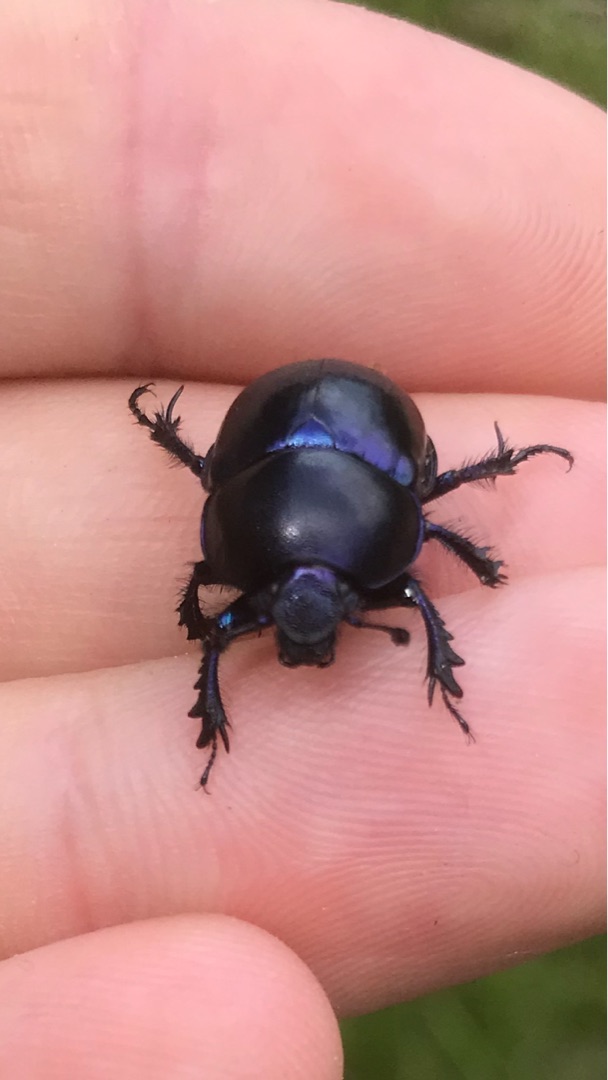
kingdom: Animalia
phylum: Arthropoda
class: Insecta
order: Coleoptera
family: Geotrupidae
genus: Trypocopris
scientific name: Trypocopris vernalis
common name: Glat skarnbasse
